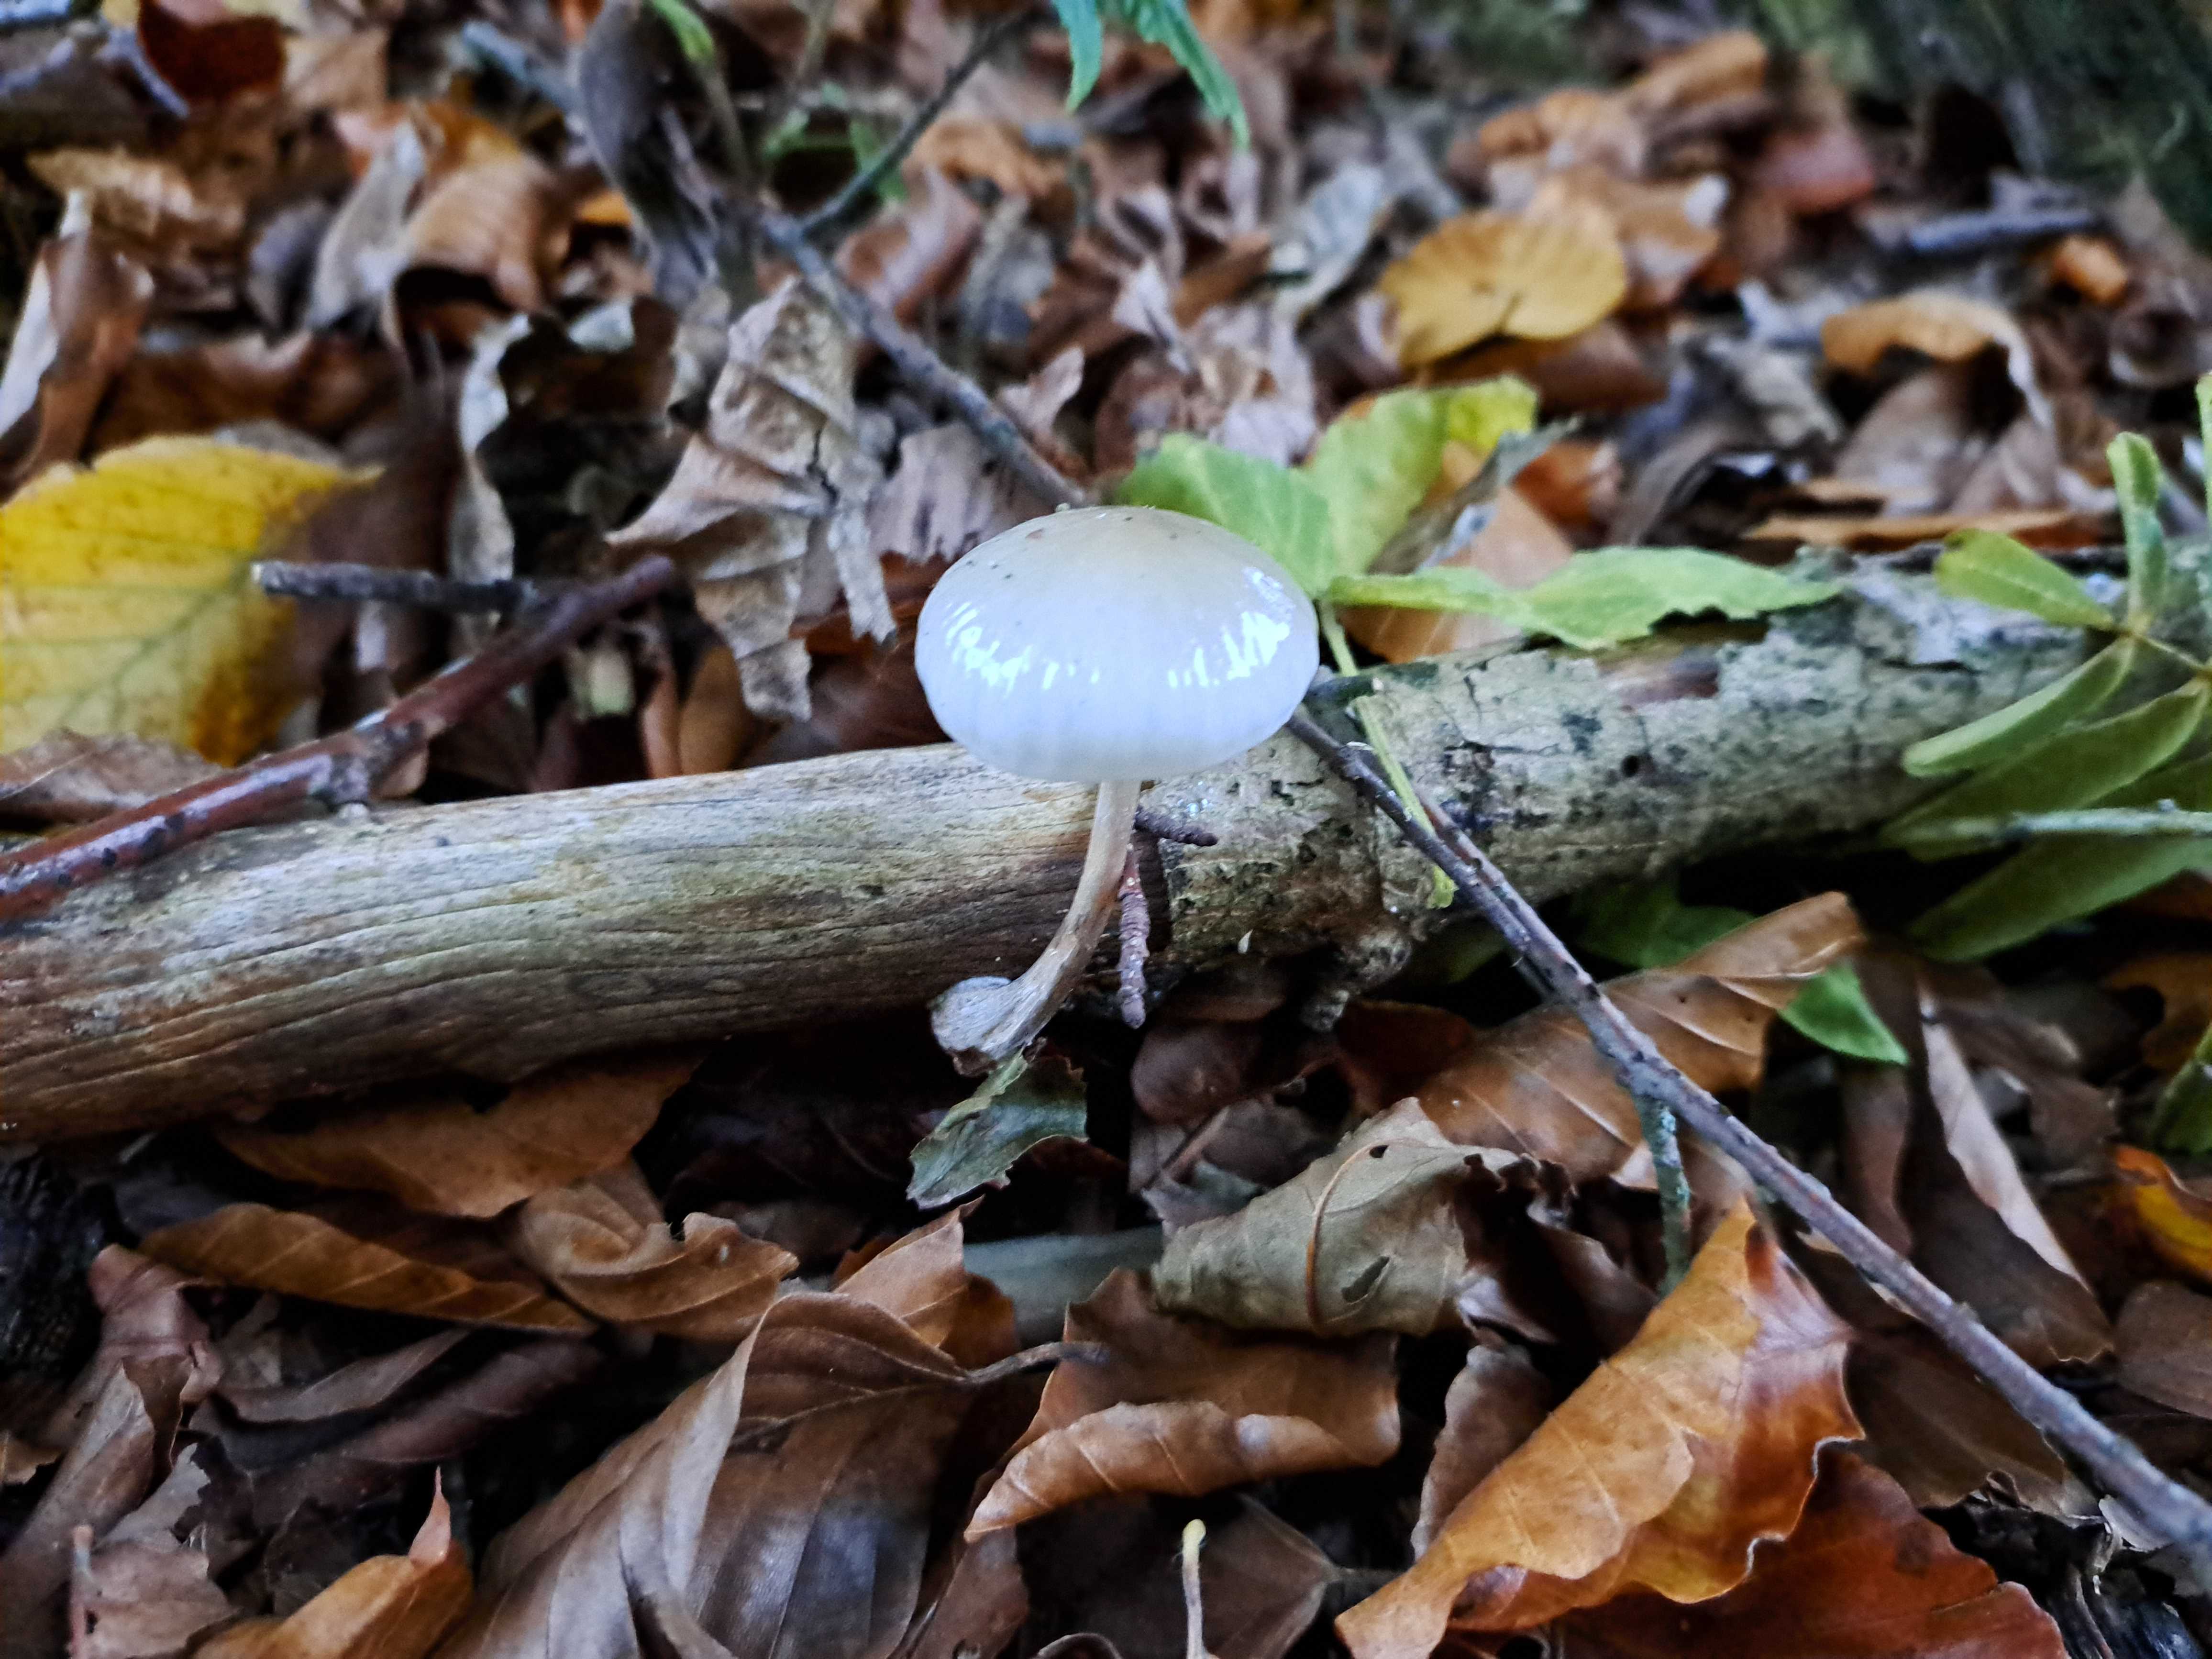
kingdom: Fungi
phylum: Basidiomycota
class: Agaricomycetes
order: Agaricales
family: Physalacriaceae
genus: Mucidula
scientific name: Mucidula mucida
